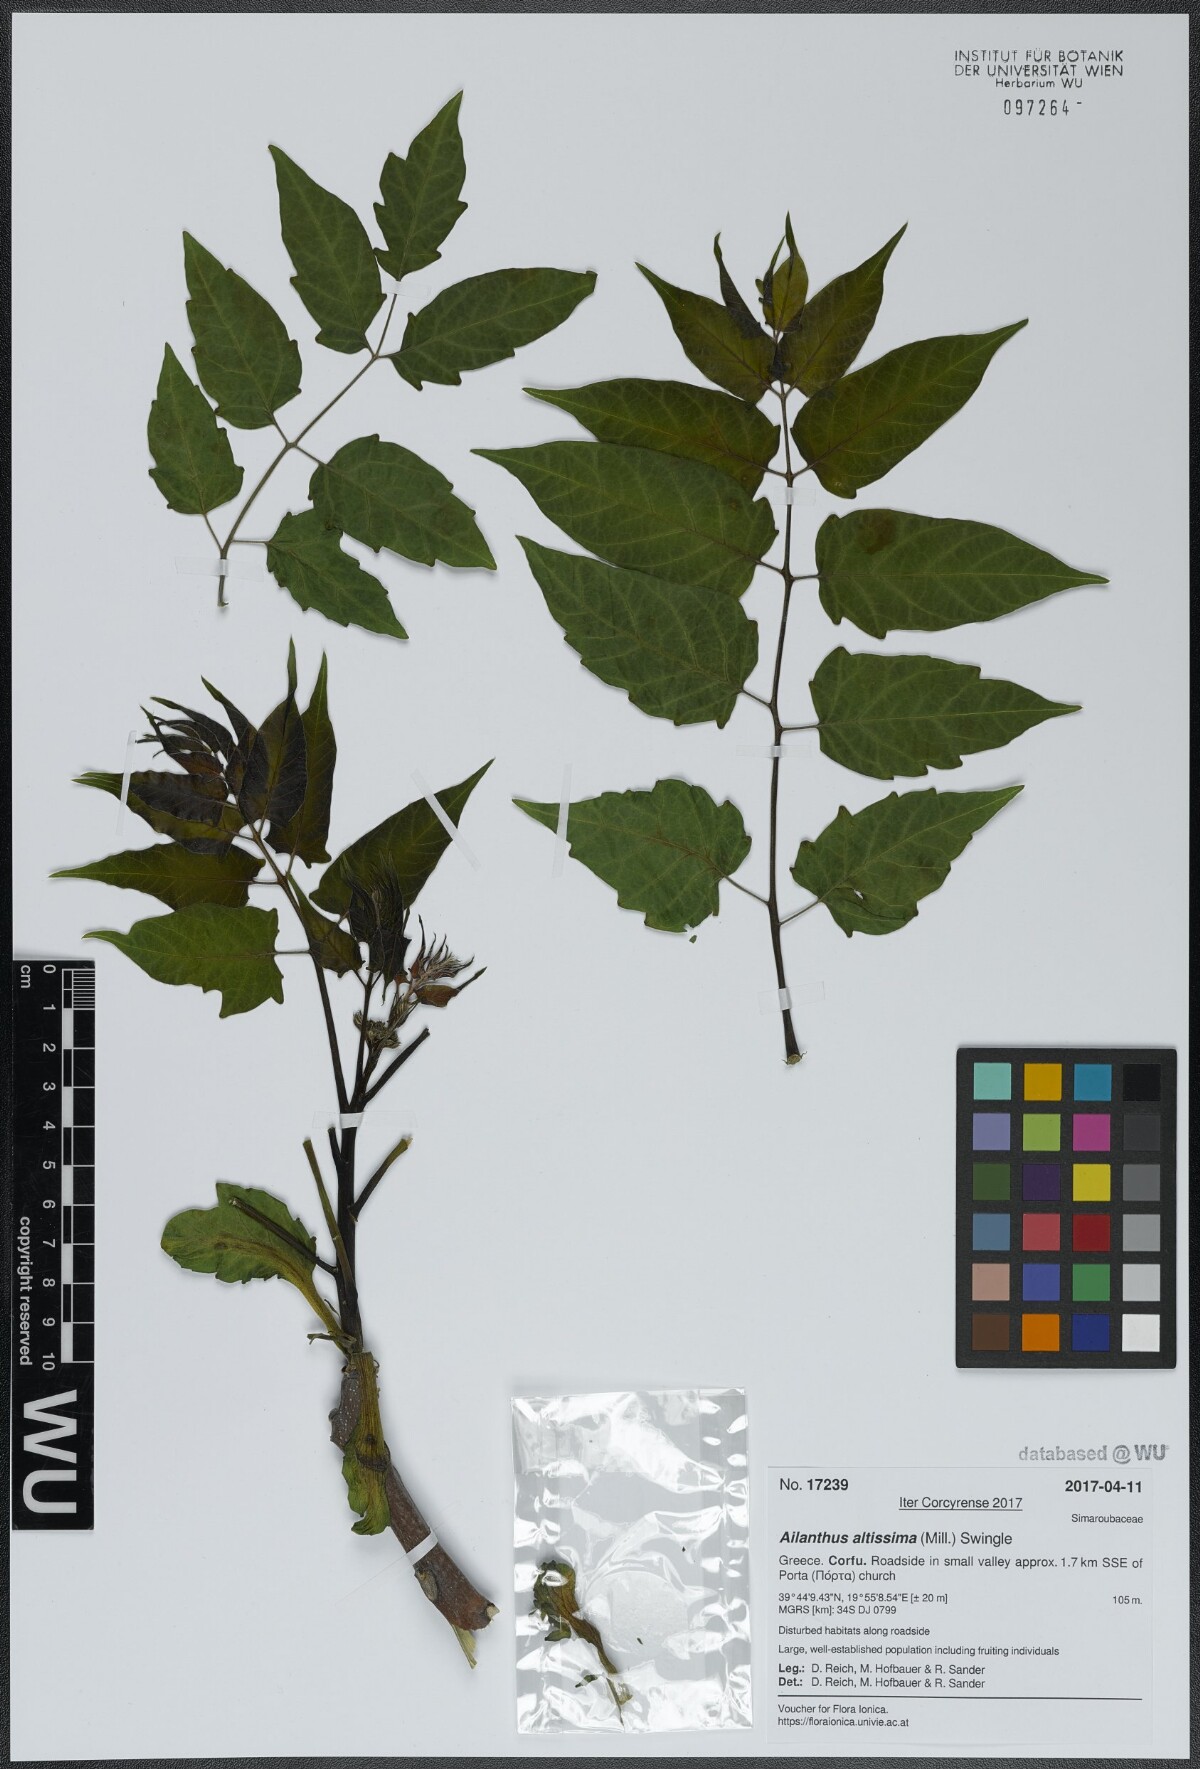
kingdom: Plantae
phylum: Tracheophyta
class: Magnoliopsida
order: Sapindales
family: Simaroubaceae
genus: Ailanthus
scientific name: Ailanthus altissima
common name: Tree-of-heaven
